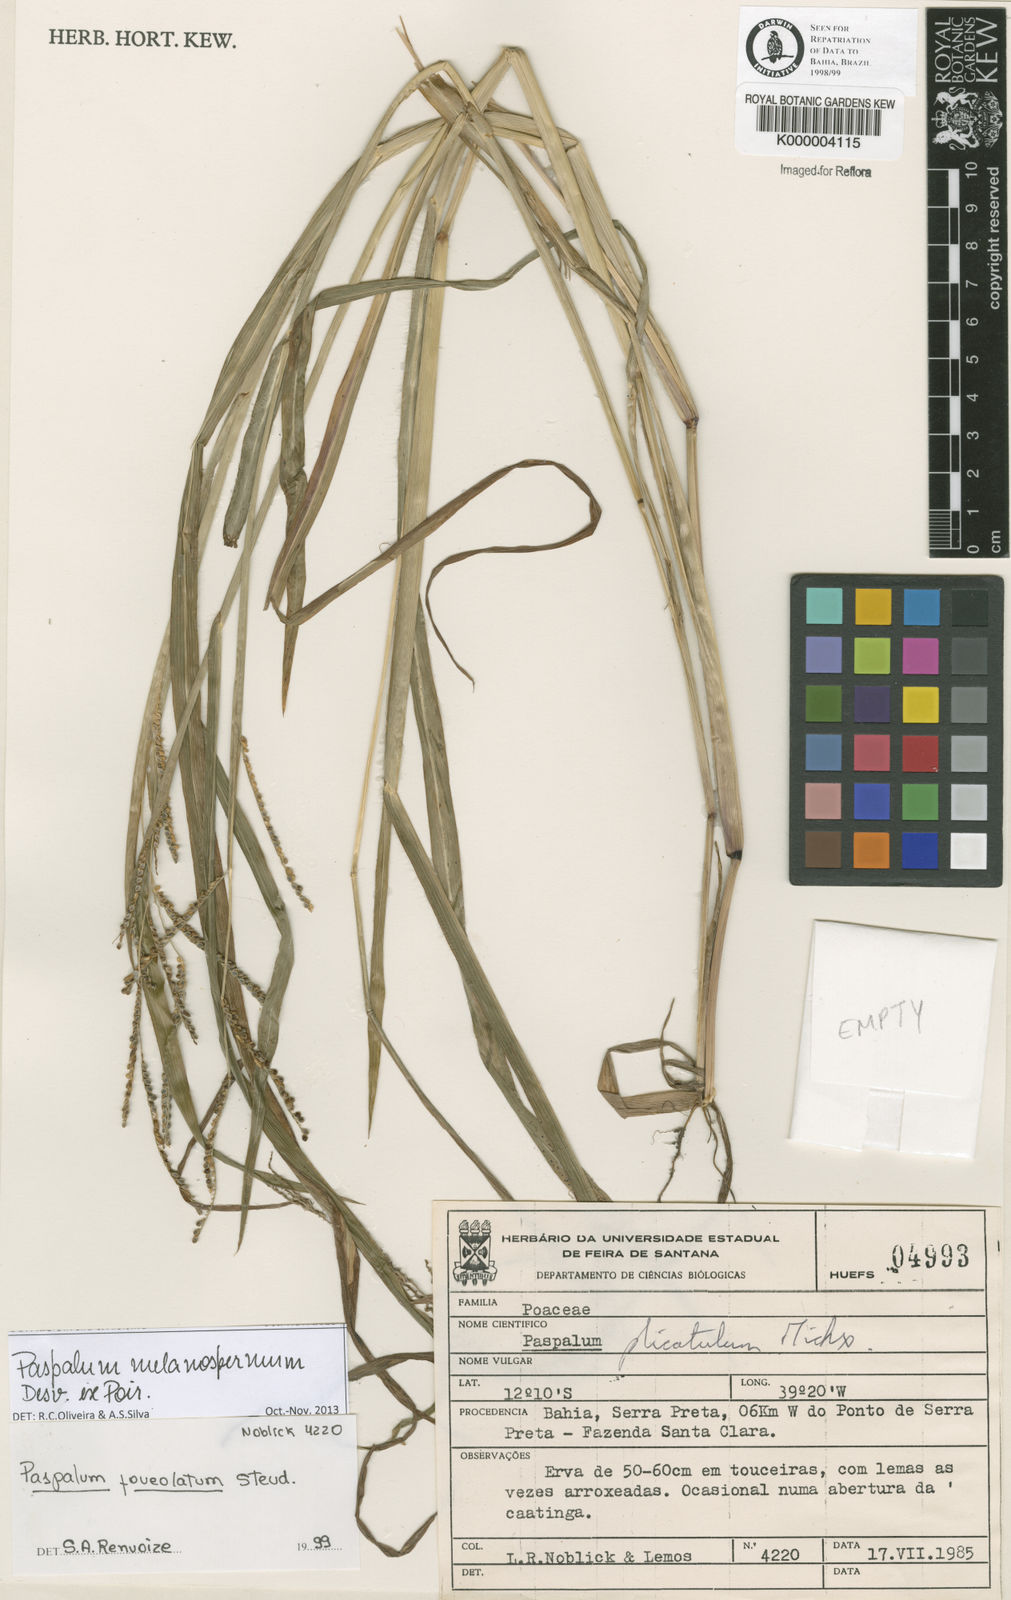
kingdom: Plantae
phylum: Tracheophyta
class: Liliopsida
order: Poales
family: Poaceae
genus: Paspalum
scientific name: Paspalum melanospermum
